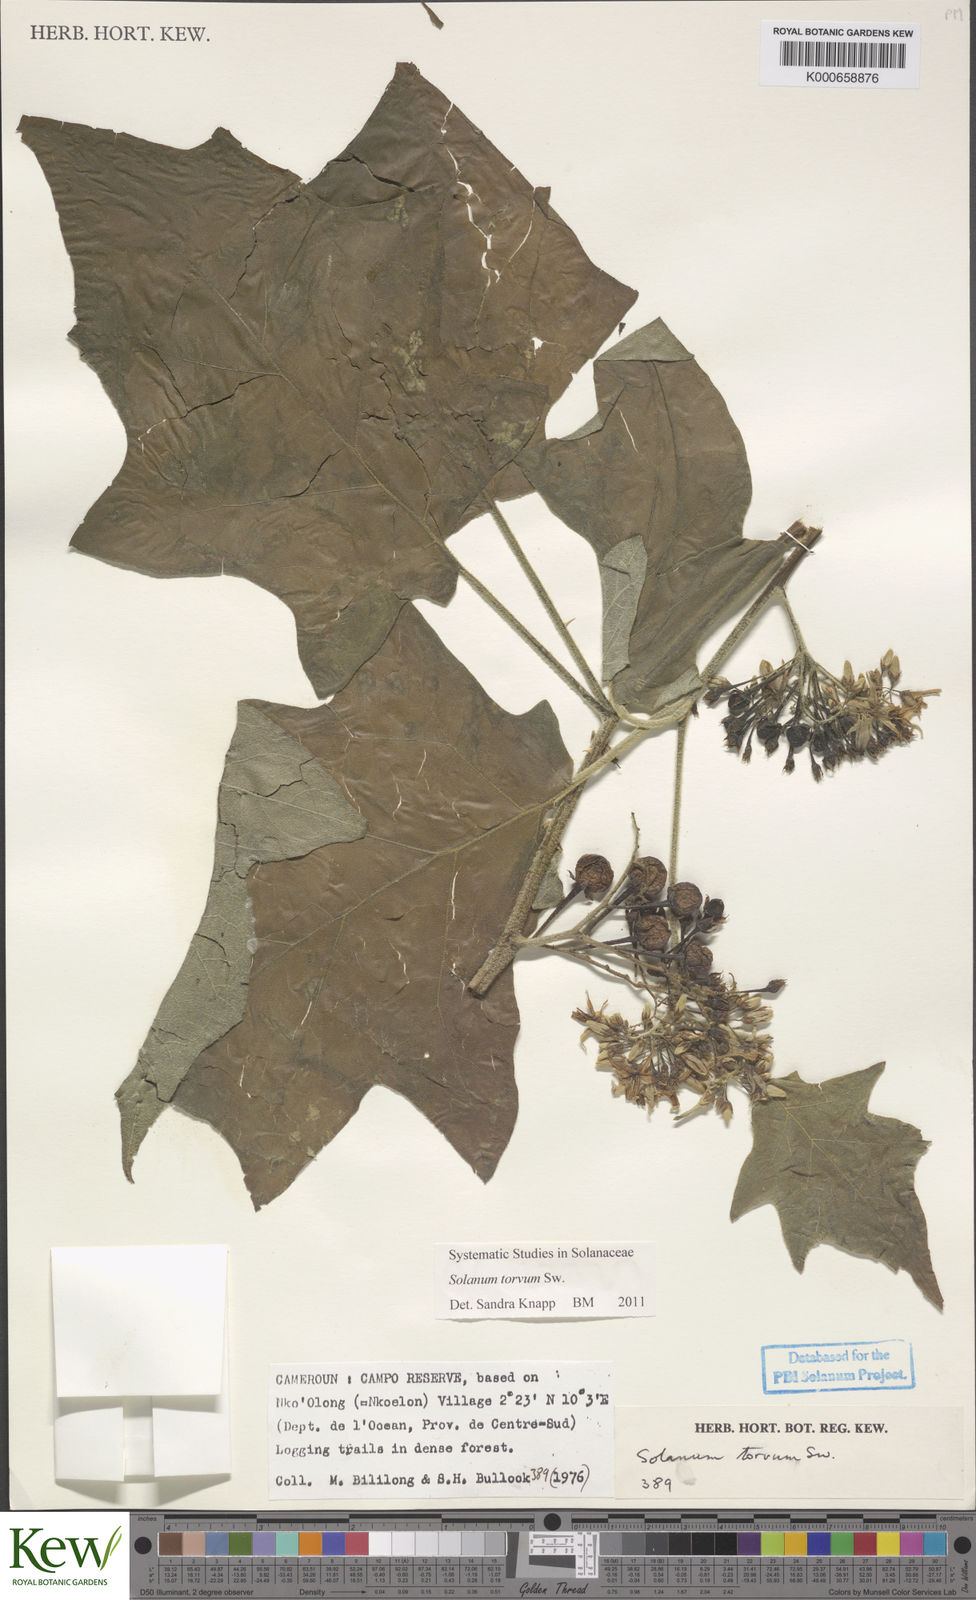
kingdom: Plantae
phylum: Tracheophyta
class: Magnoliopsida
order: Solanales
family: Solanaceae
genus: Solanum
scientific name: Solanum torvum
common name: Turkey berry
